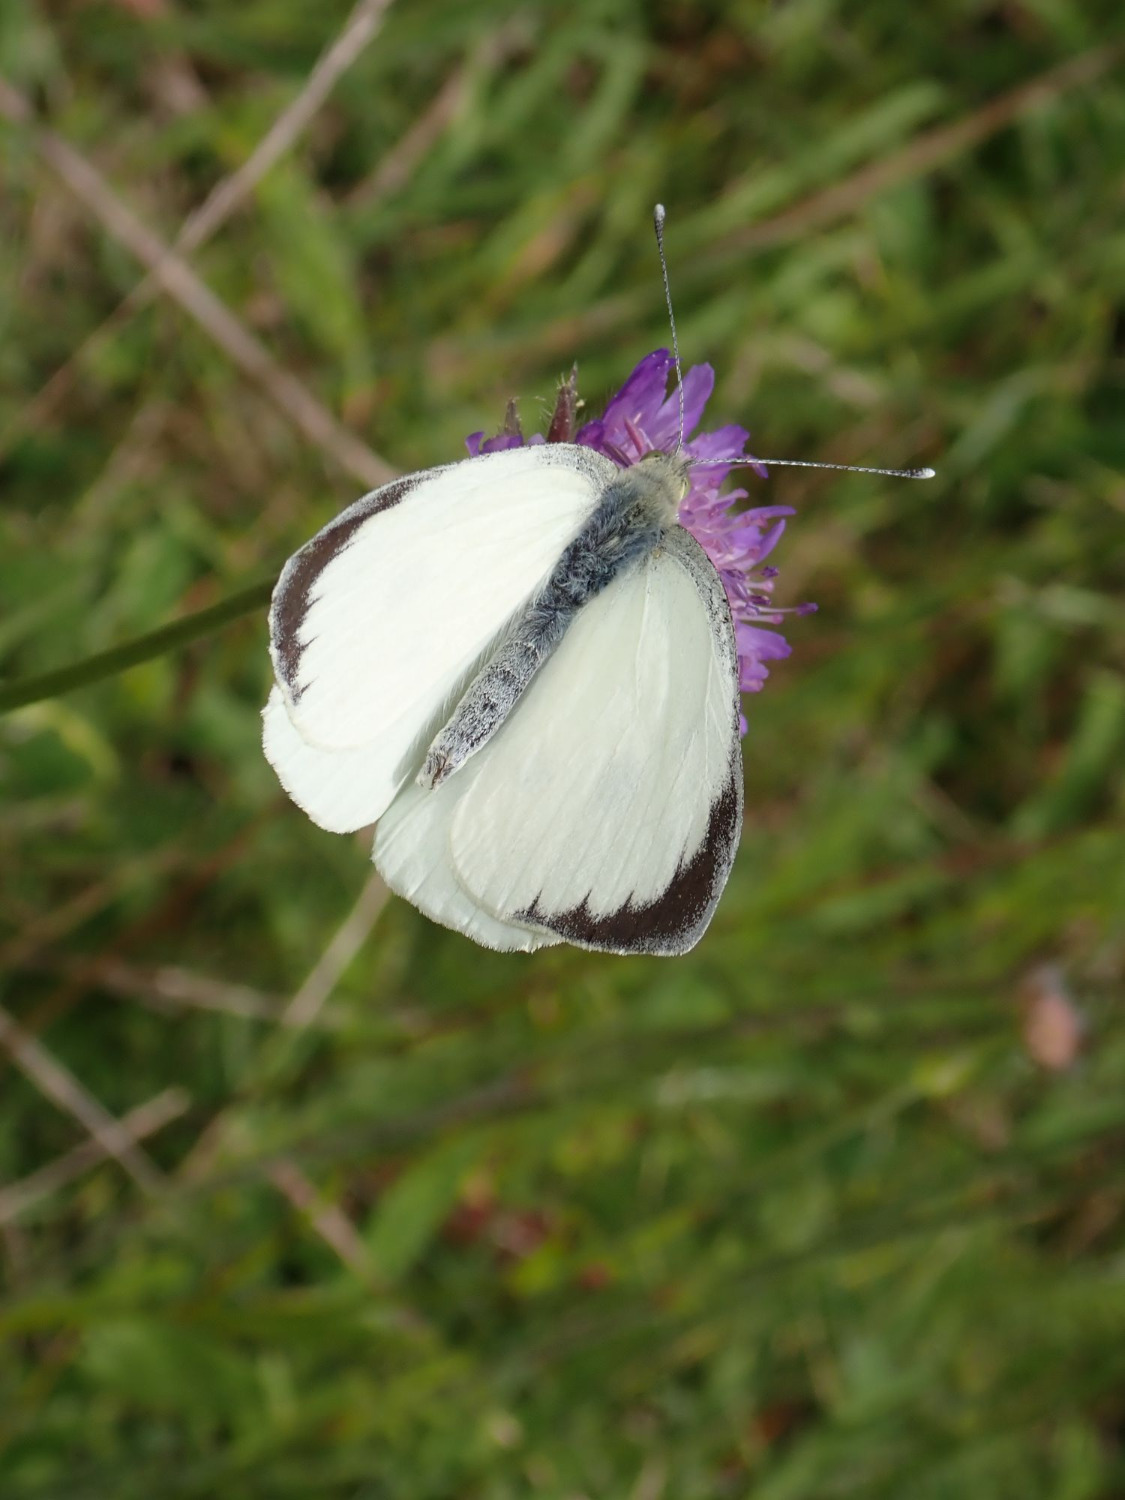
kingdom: Animalia
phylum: Arthropoda
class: Insecta
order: Lepidoptera
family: Pieridae
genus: Pieris
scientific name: Pieris brassicae
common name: Stor kålsommerfugl
